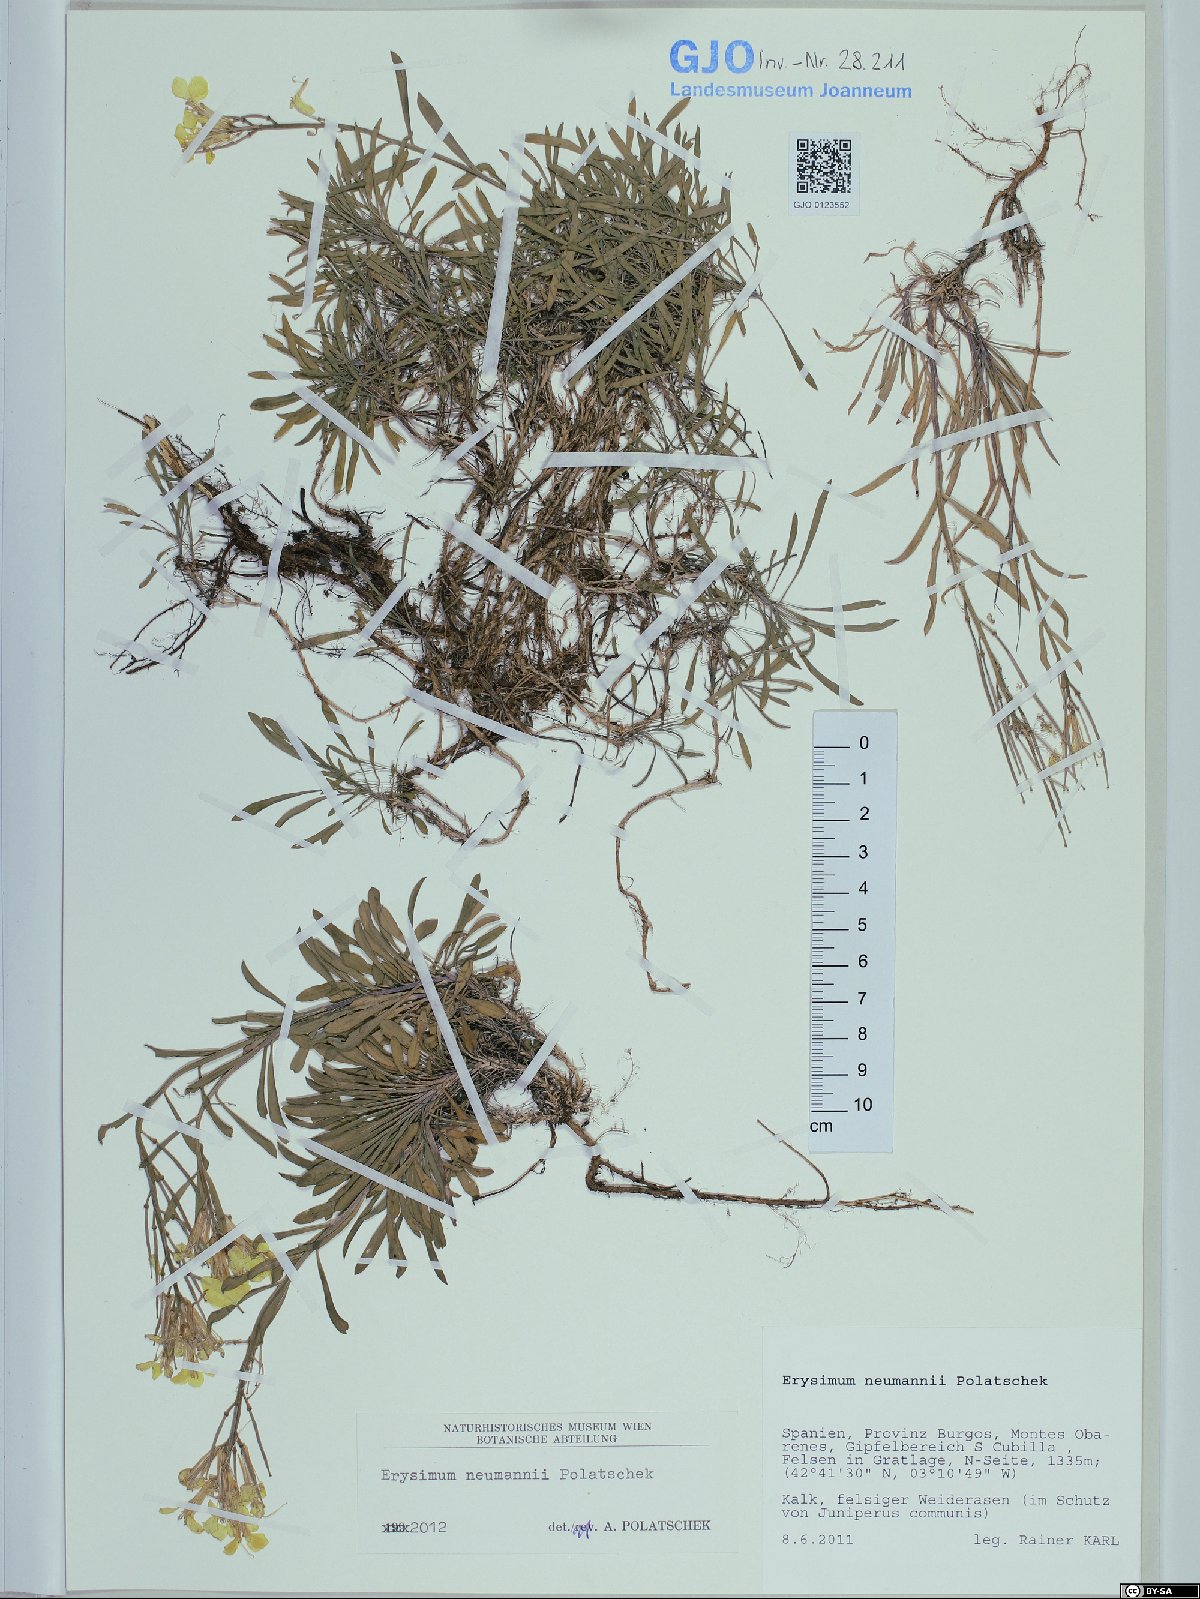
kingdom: Plantae
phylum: Tracheophyta
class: Magnoliopsida
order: Brassicales
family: Brassicaceae
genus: Erysimum
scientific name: Erysimum duriaei
